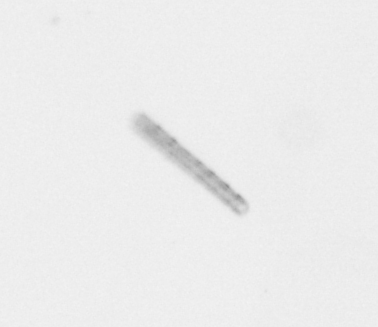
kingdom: Chromista
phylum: Ochrophyta
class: Bacillariophyceae
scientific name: Bacillariophyceae
